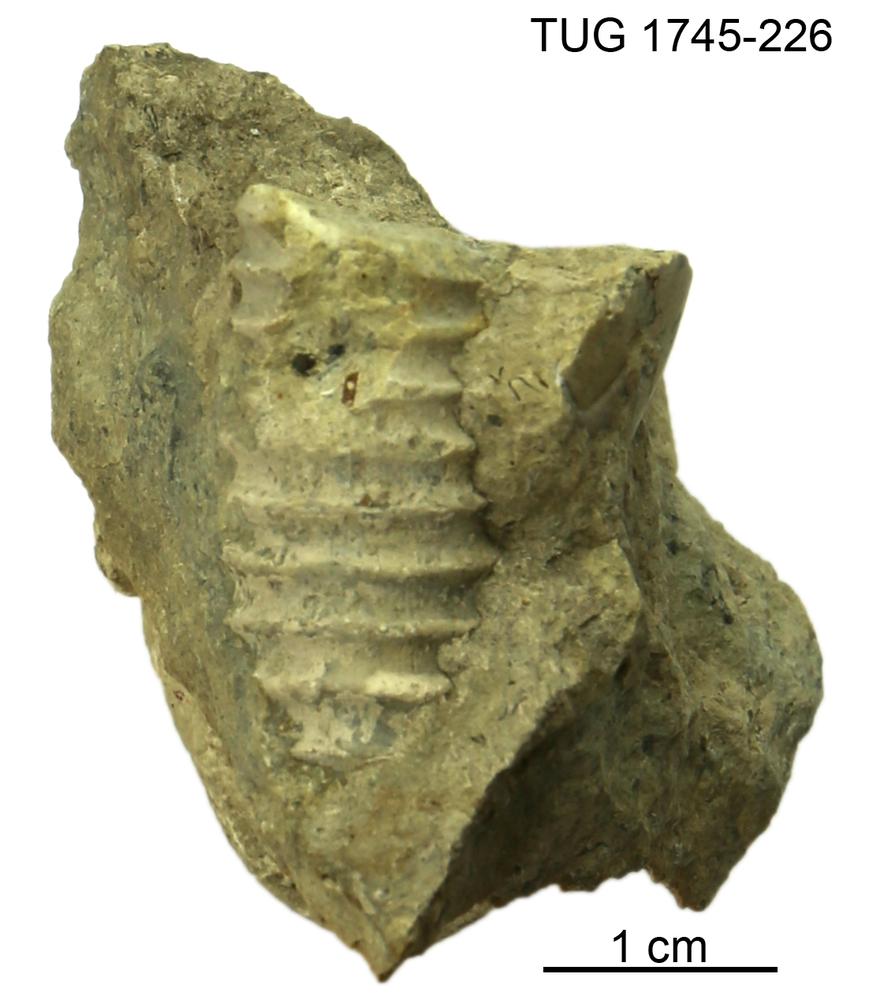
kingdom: Animalia
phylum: Mollusca
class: Cephalopoda
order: Orthocerida
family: Dawsonoceratidae
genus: Palaeodawsonocerina
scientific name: Palaeodawsonocerina Spyroceras senckenbergi
